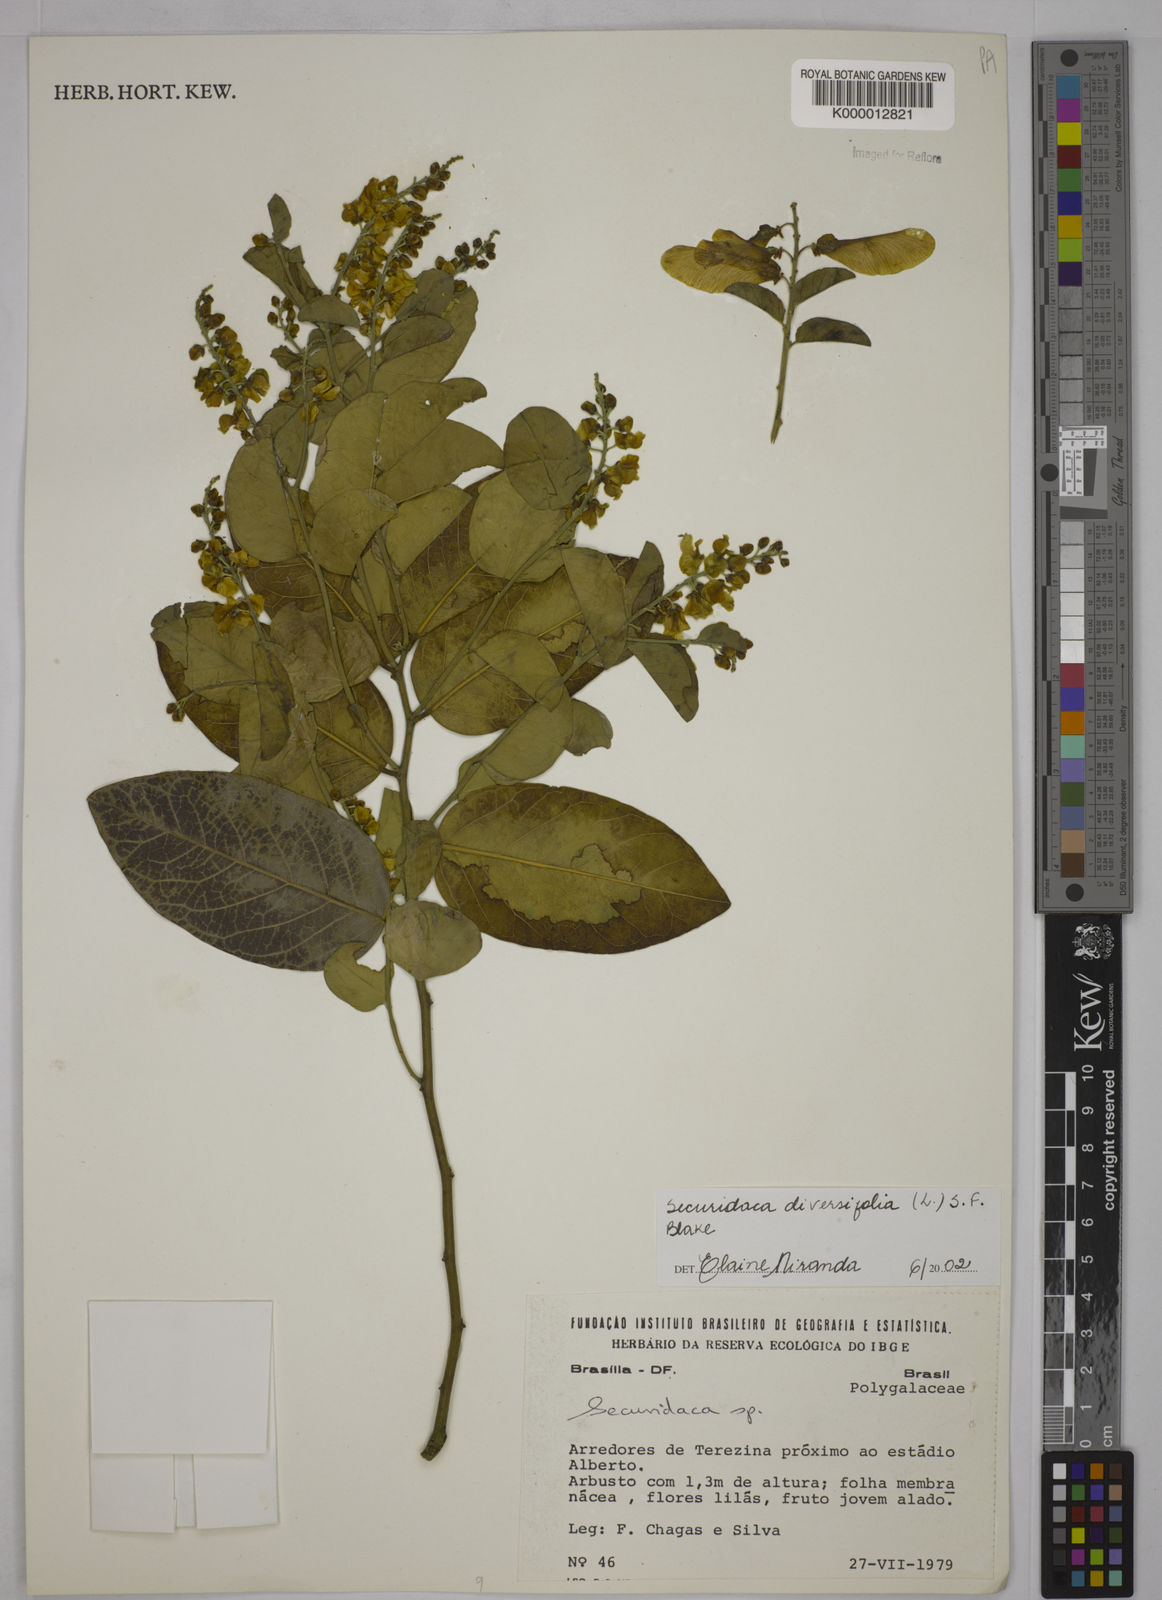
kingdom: Plantae
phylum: Tracheophyta
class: Magnoliopsida
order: Fabales
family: Polygalaceae
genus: Securidaca
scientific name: Securidaca diversifolia
